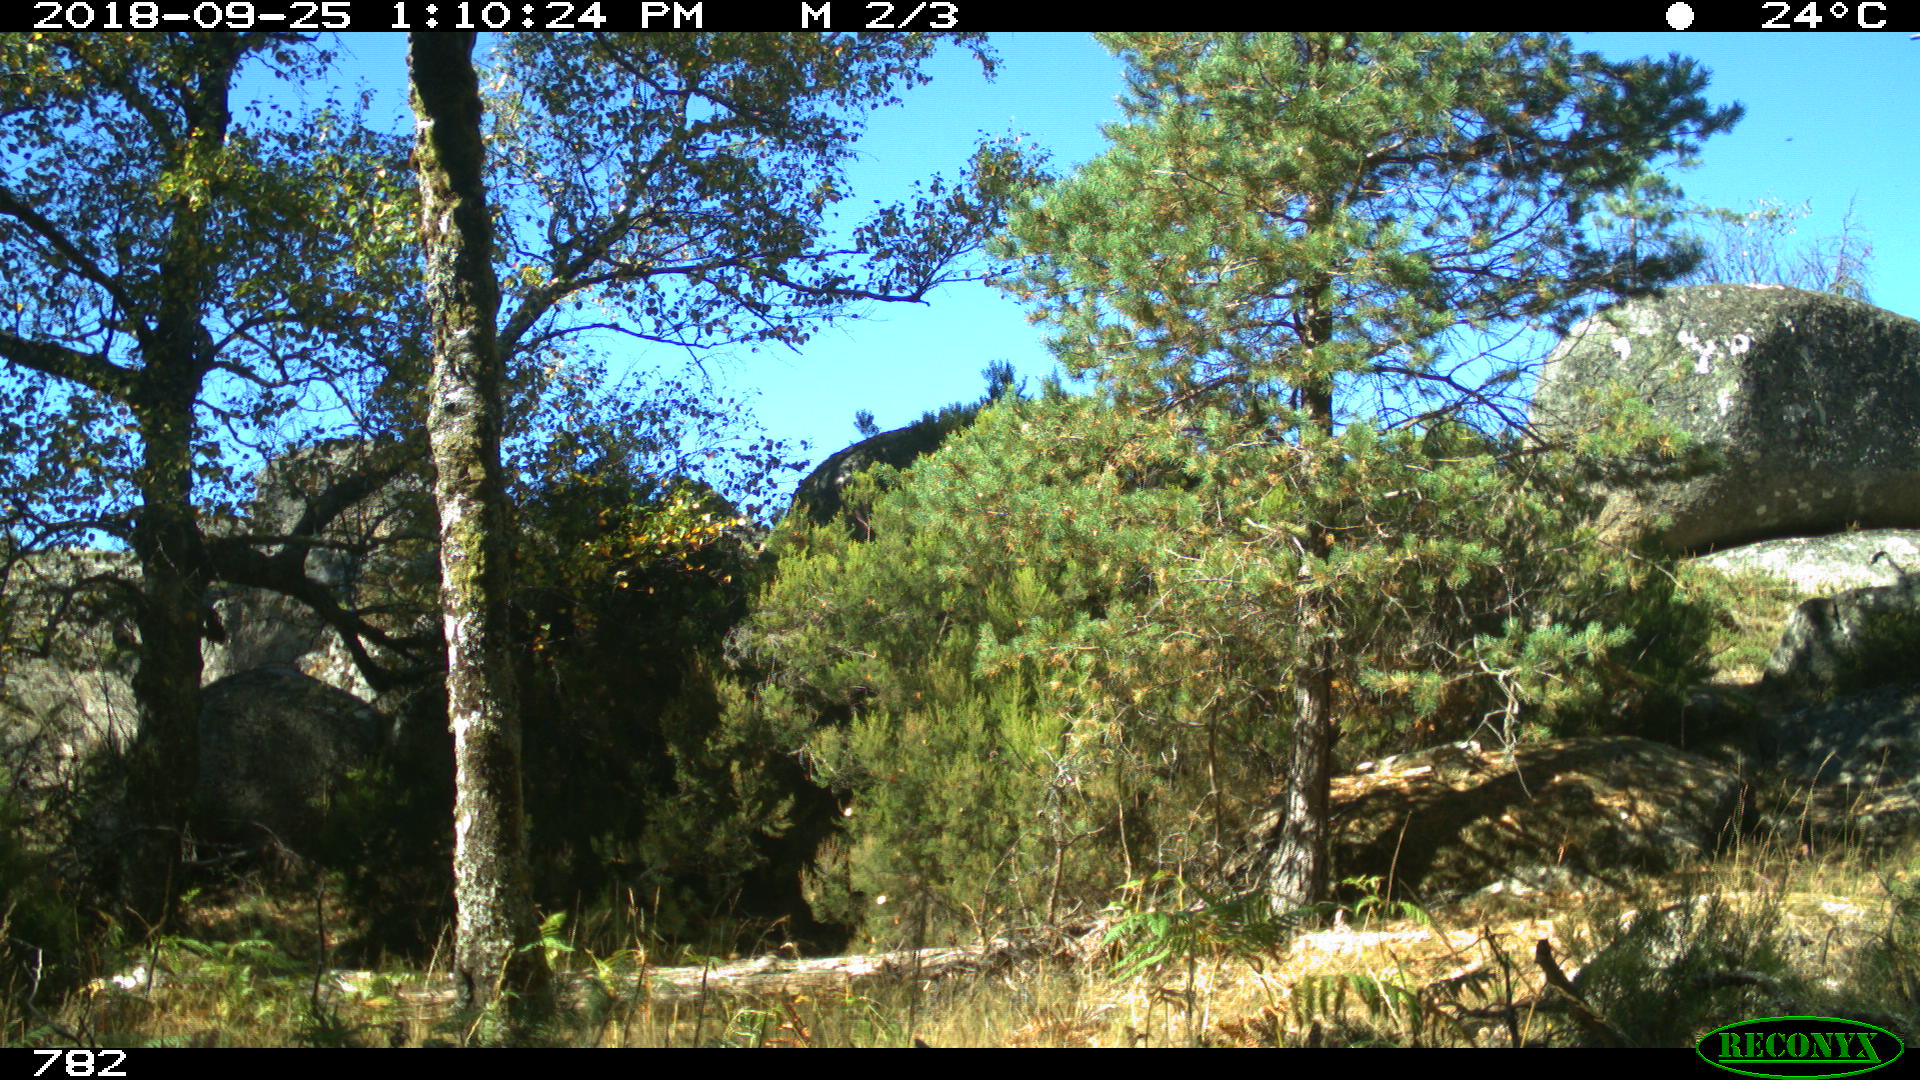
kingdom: Animalia
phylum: Chordata
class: Mammalia
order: Perissodactyla
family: Equidae
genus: Equus
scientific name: Equus caballus
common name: Horse
